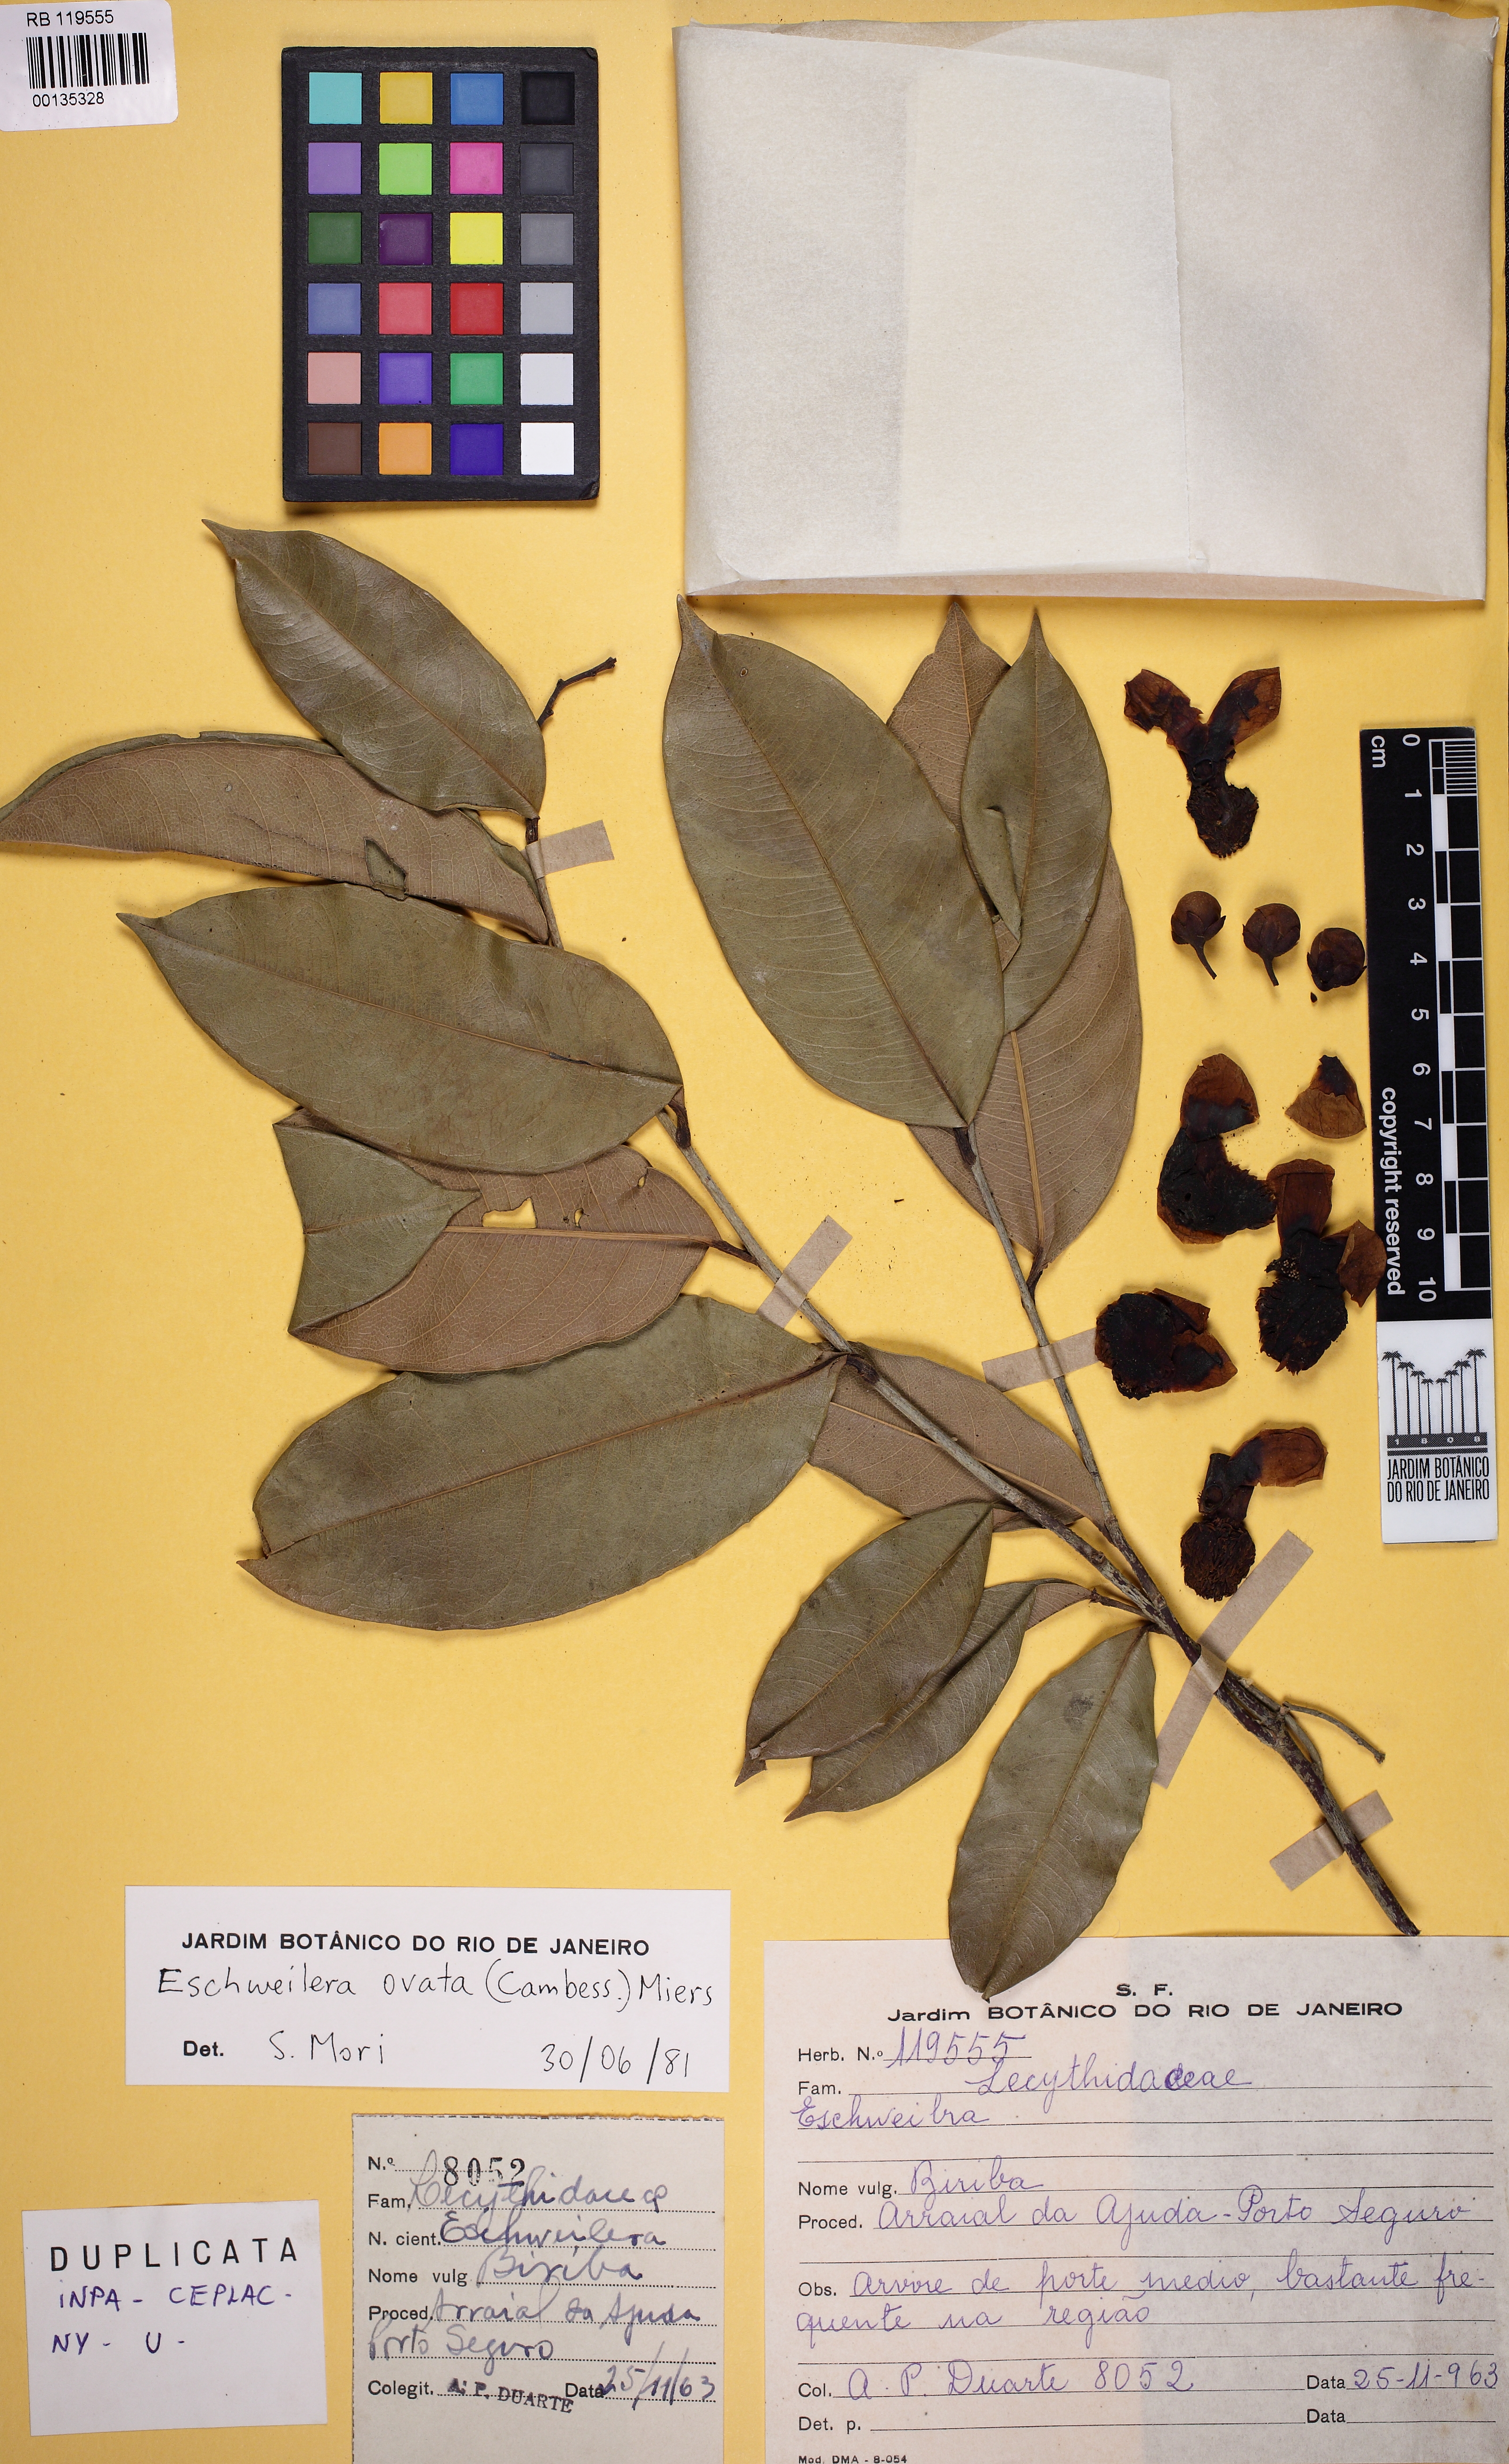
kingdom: Plantae
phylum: Tracheophyta
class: Magnoliopsida
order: Ericales
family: Lecythidaceae
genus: Eschweilera
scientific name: Eschweilera ovata
